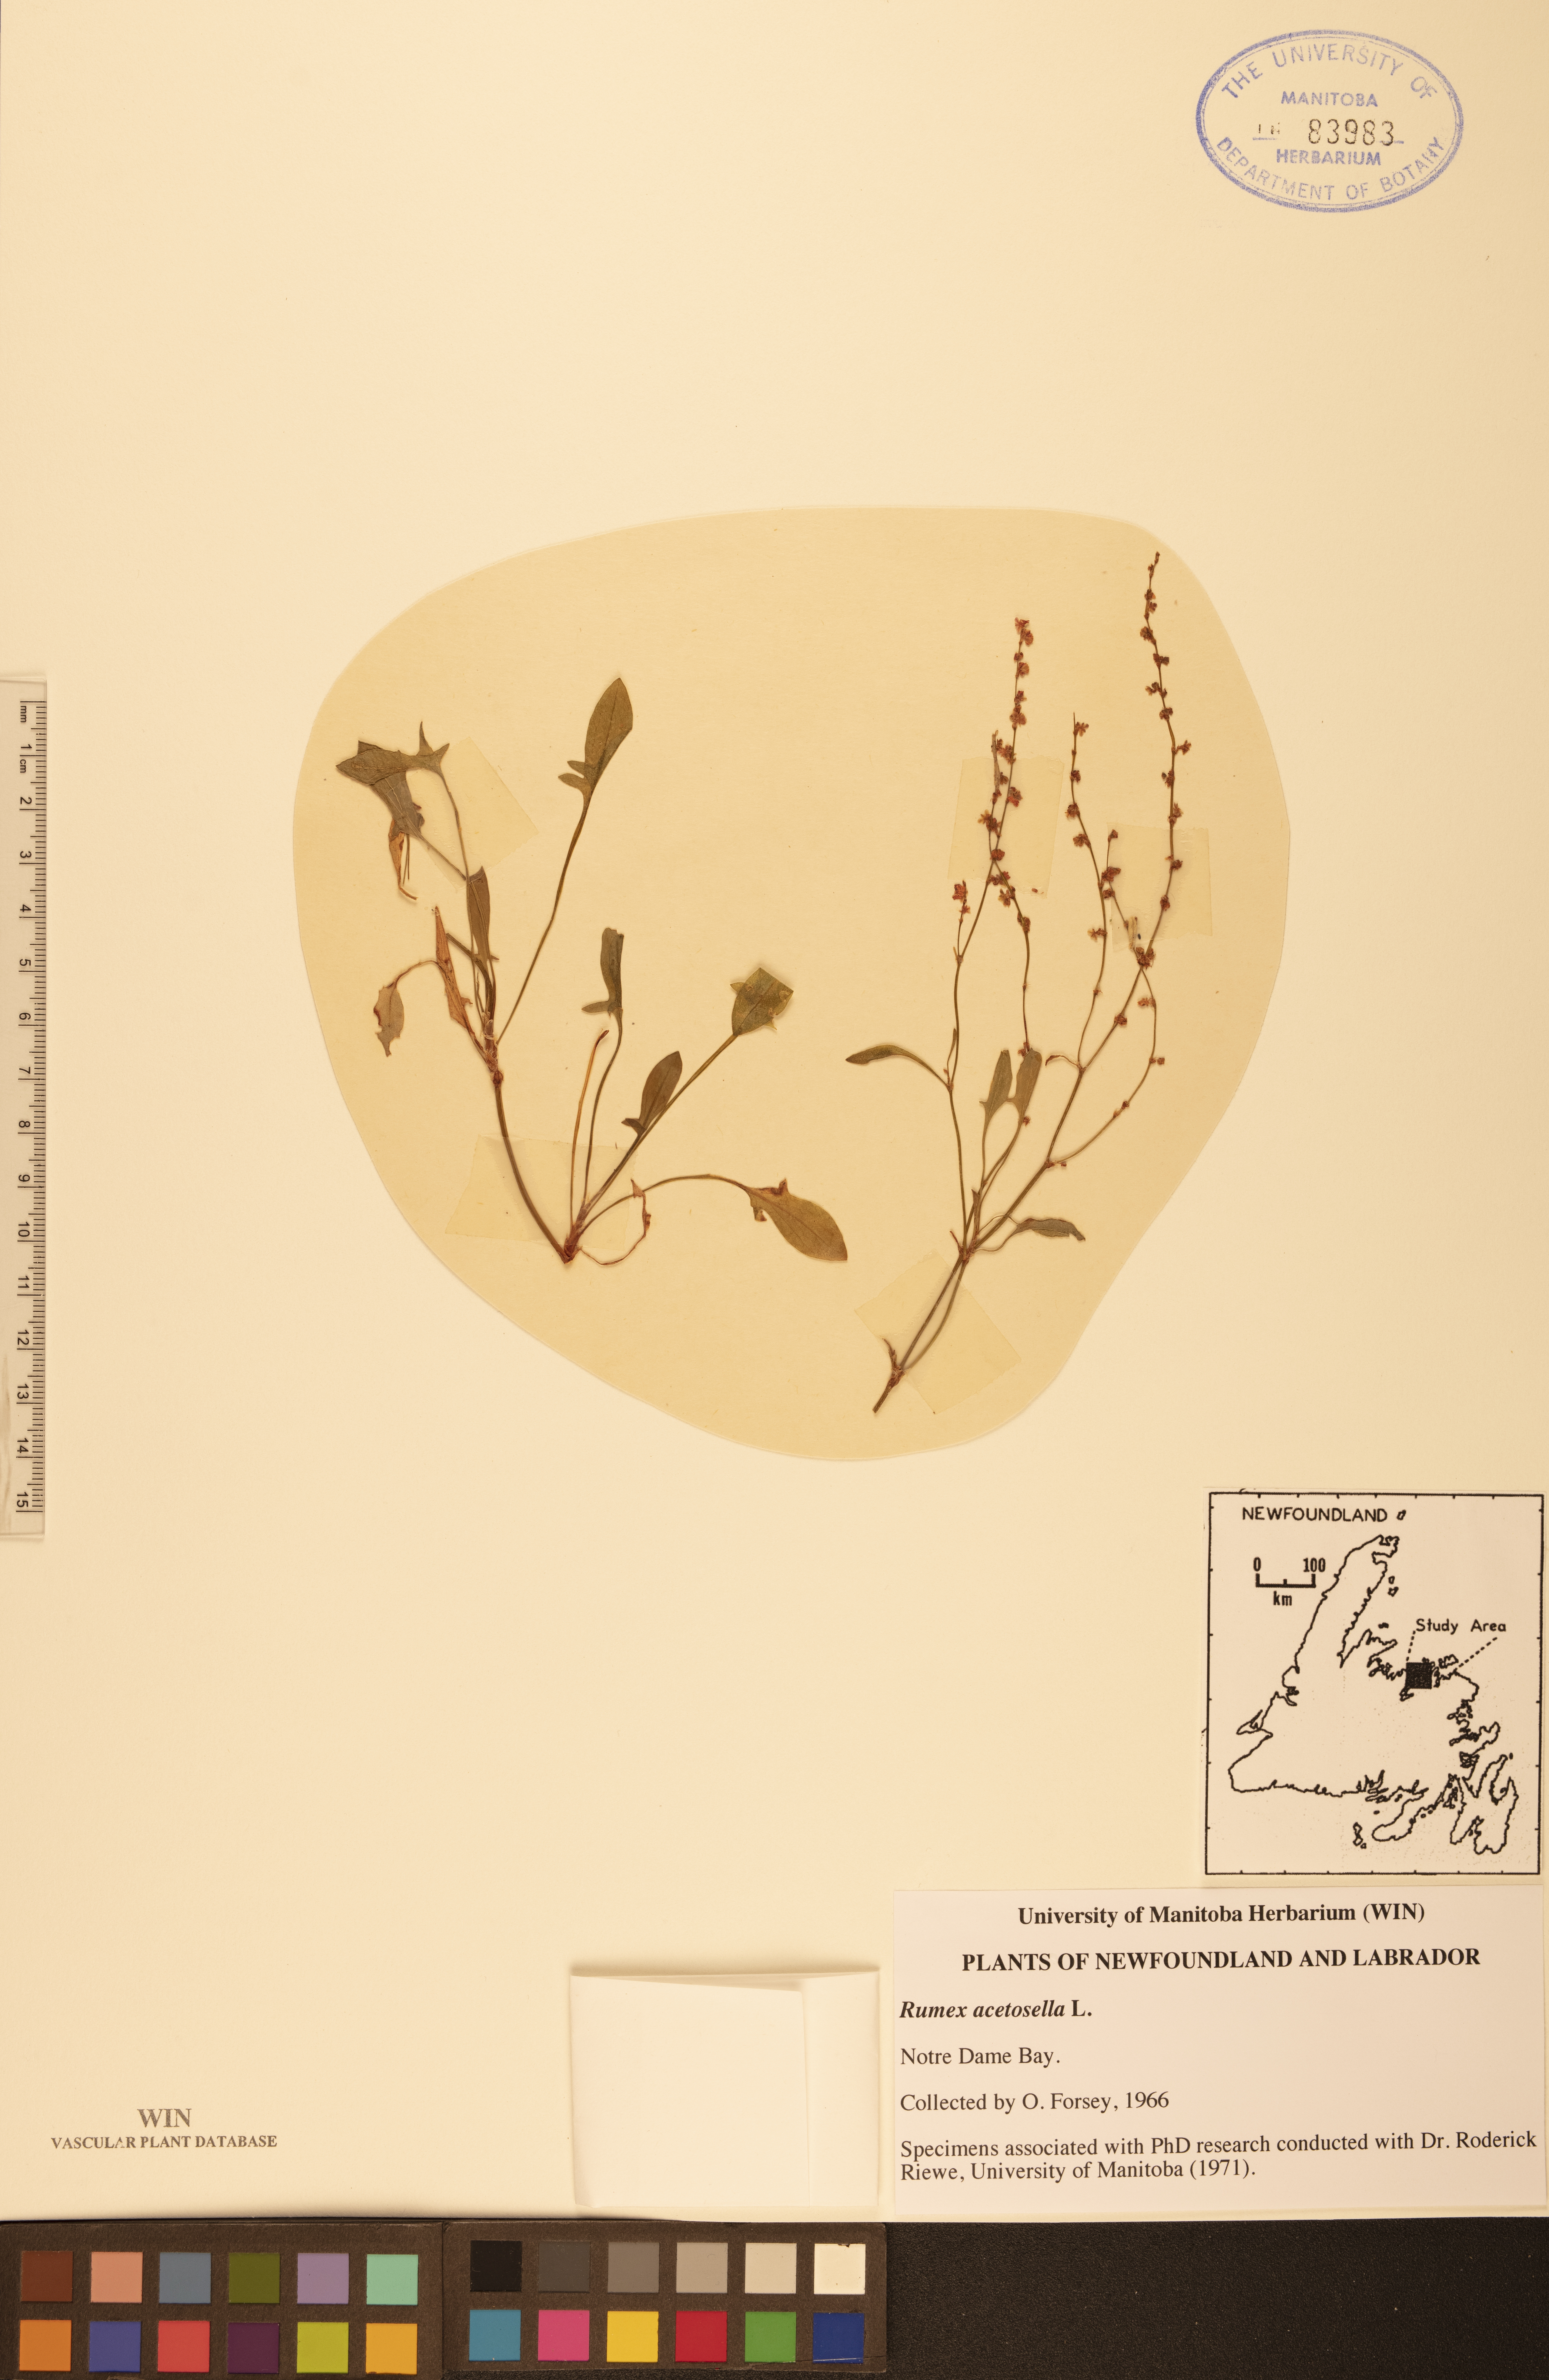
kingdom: Plantae
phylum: Tracheophyta
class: Magnoliopsida
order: Caryophyllales
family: Polygonaceae
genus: Rumex
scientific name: Rumex acetosella
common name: Common sheep sorrel
